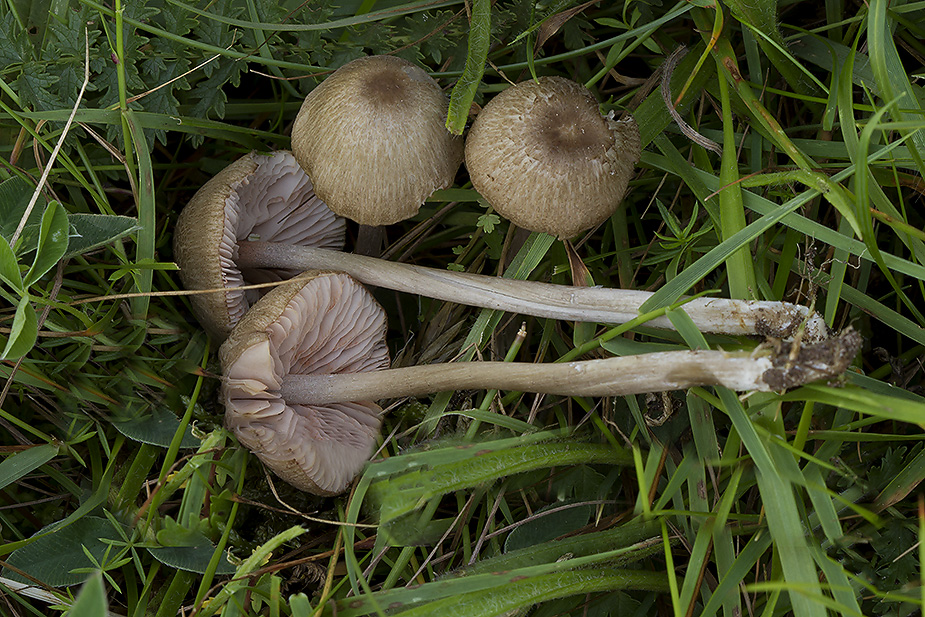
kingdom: Fungi
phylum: Basidiomycota
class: Agaricomycetes
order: Agaricales
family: Entolomataceae
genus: Entoloma
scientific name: Entoloma griseocyaneum
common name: gråblå rødblad
